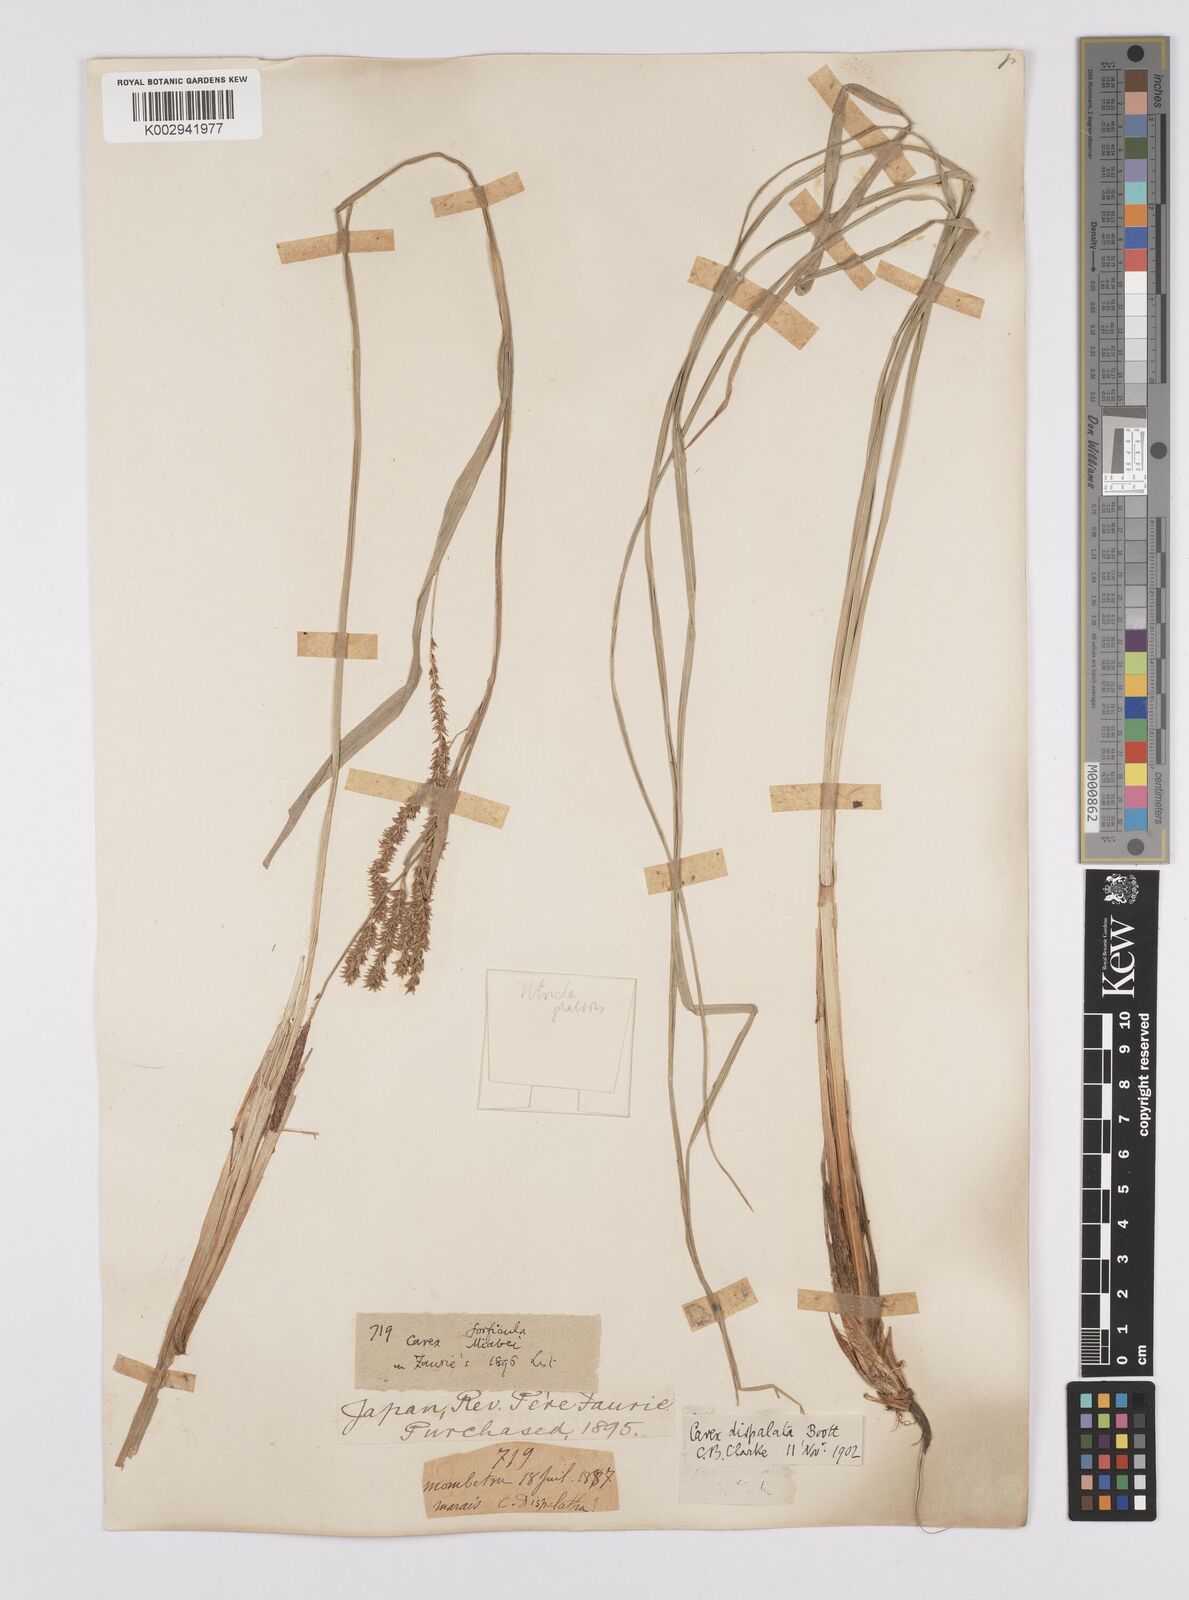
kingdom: Plantae
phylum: Tracheophyta
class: Liliopsida
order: Poales
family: Cyperaceae
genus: Carex
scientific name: Carex dispalata
